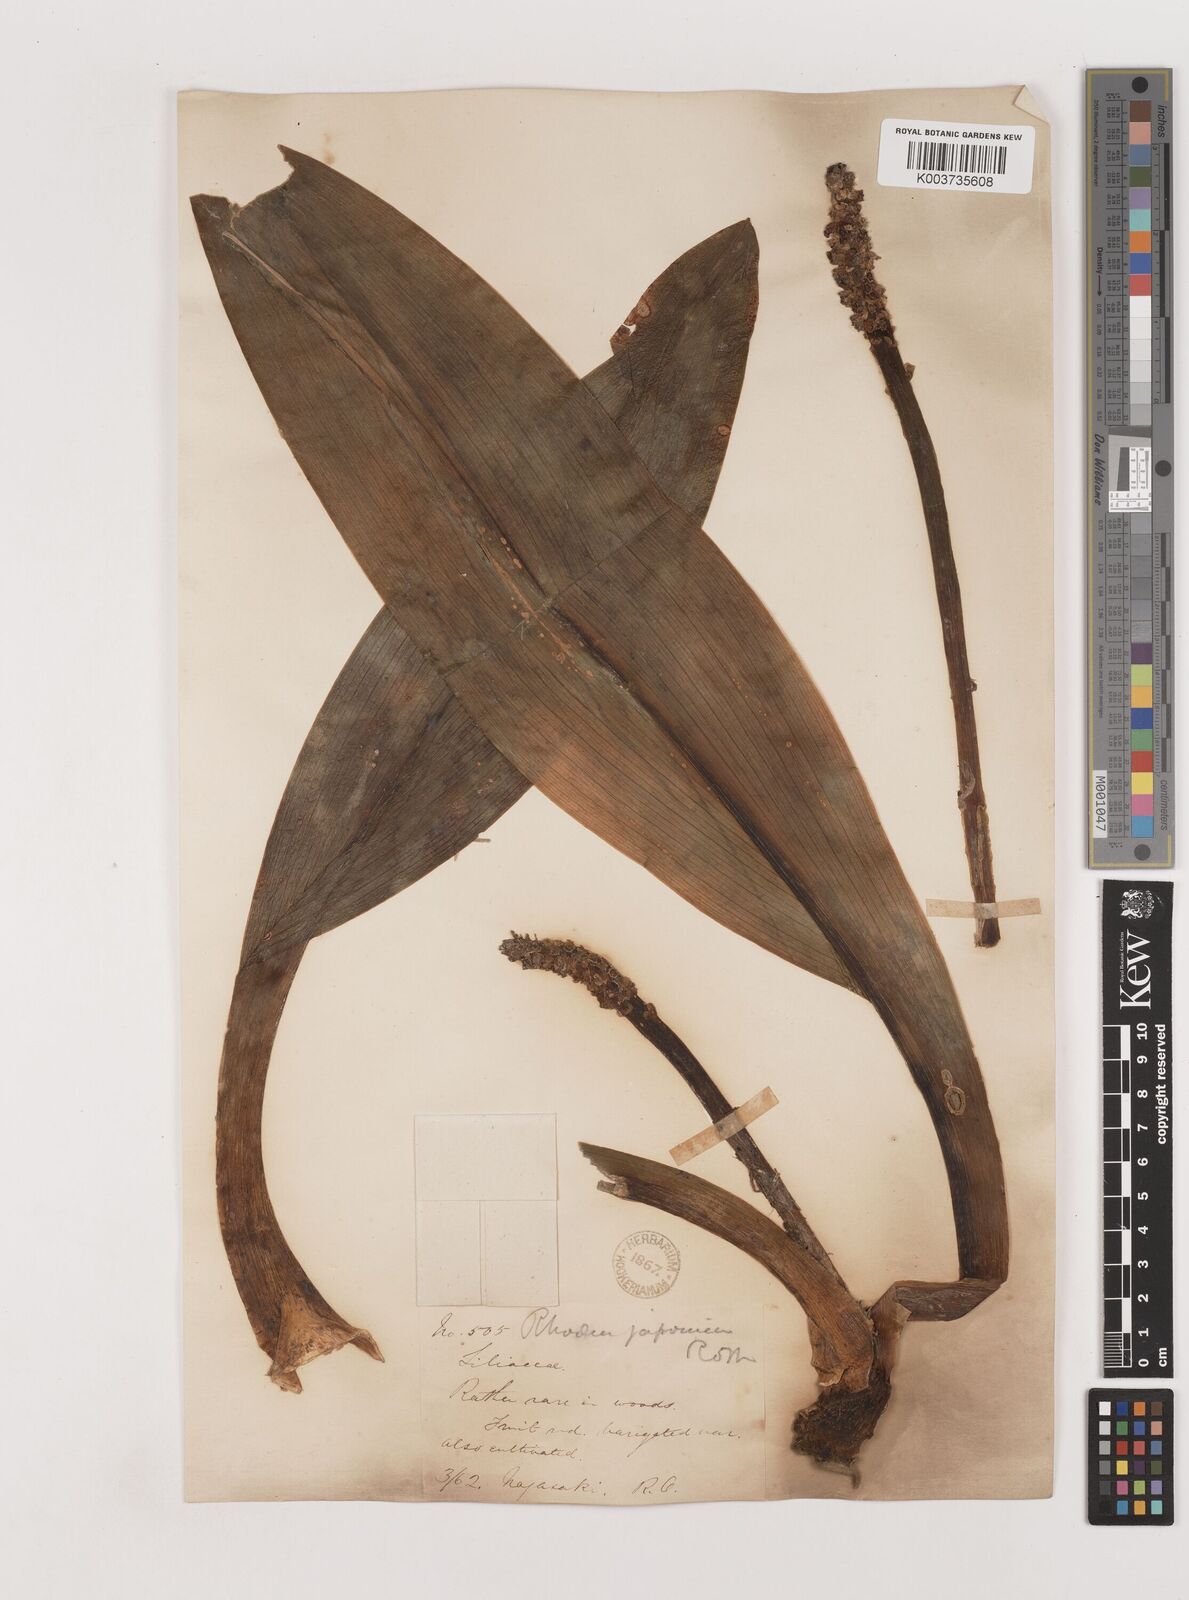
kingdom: Plantae
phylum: Tracheophyta
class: Liliopsida
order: Asparagales
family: Asparagaceae
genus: Rohdea
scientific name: Rohdea japonica
